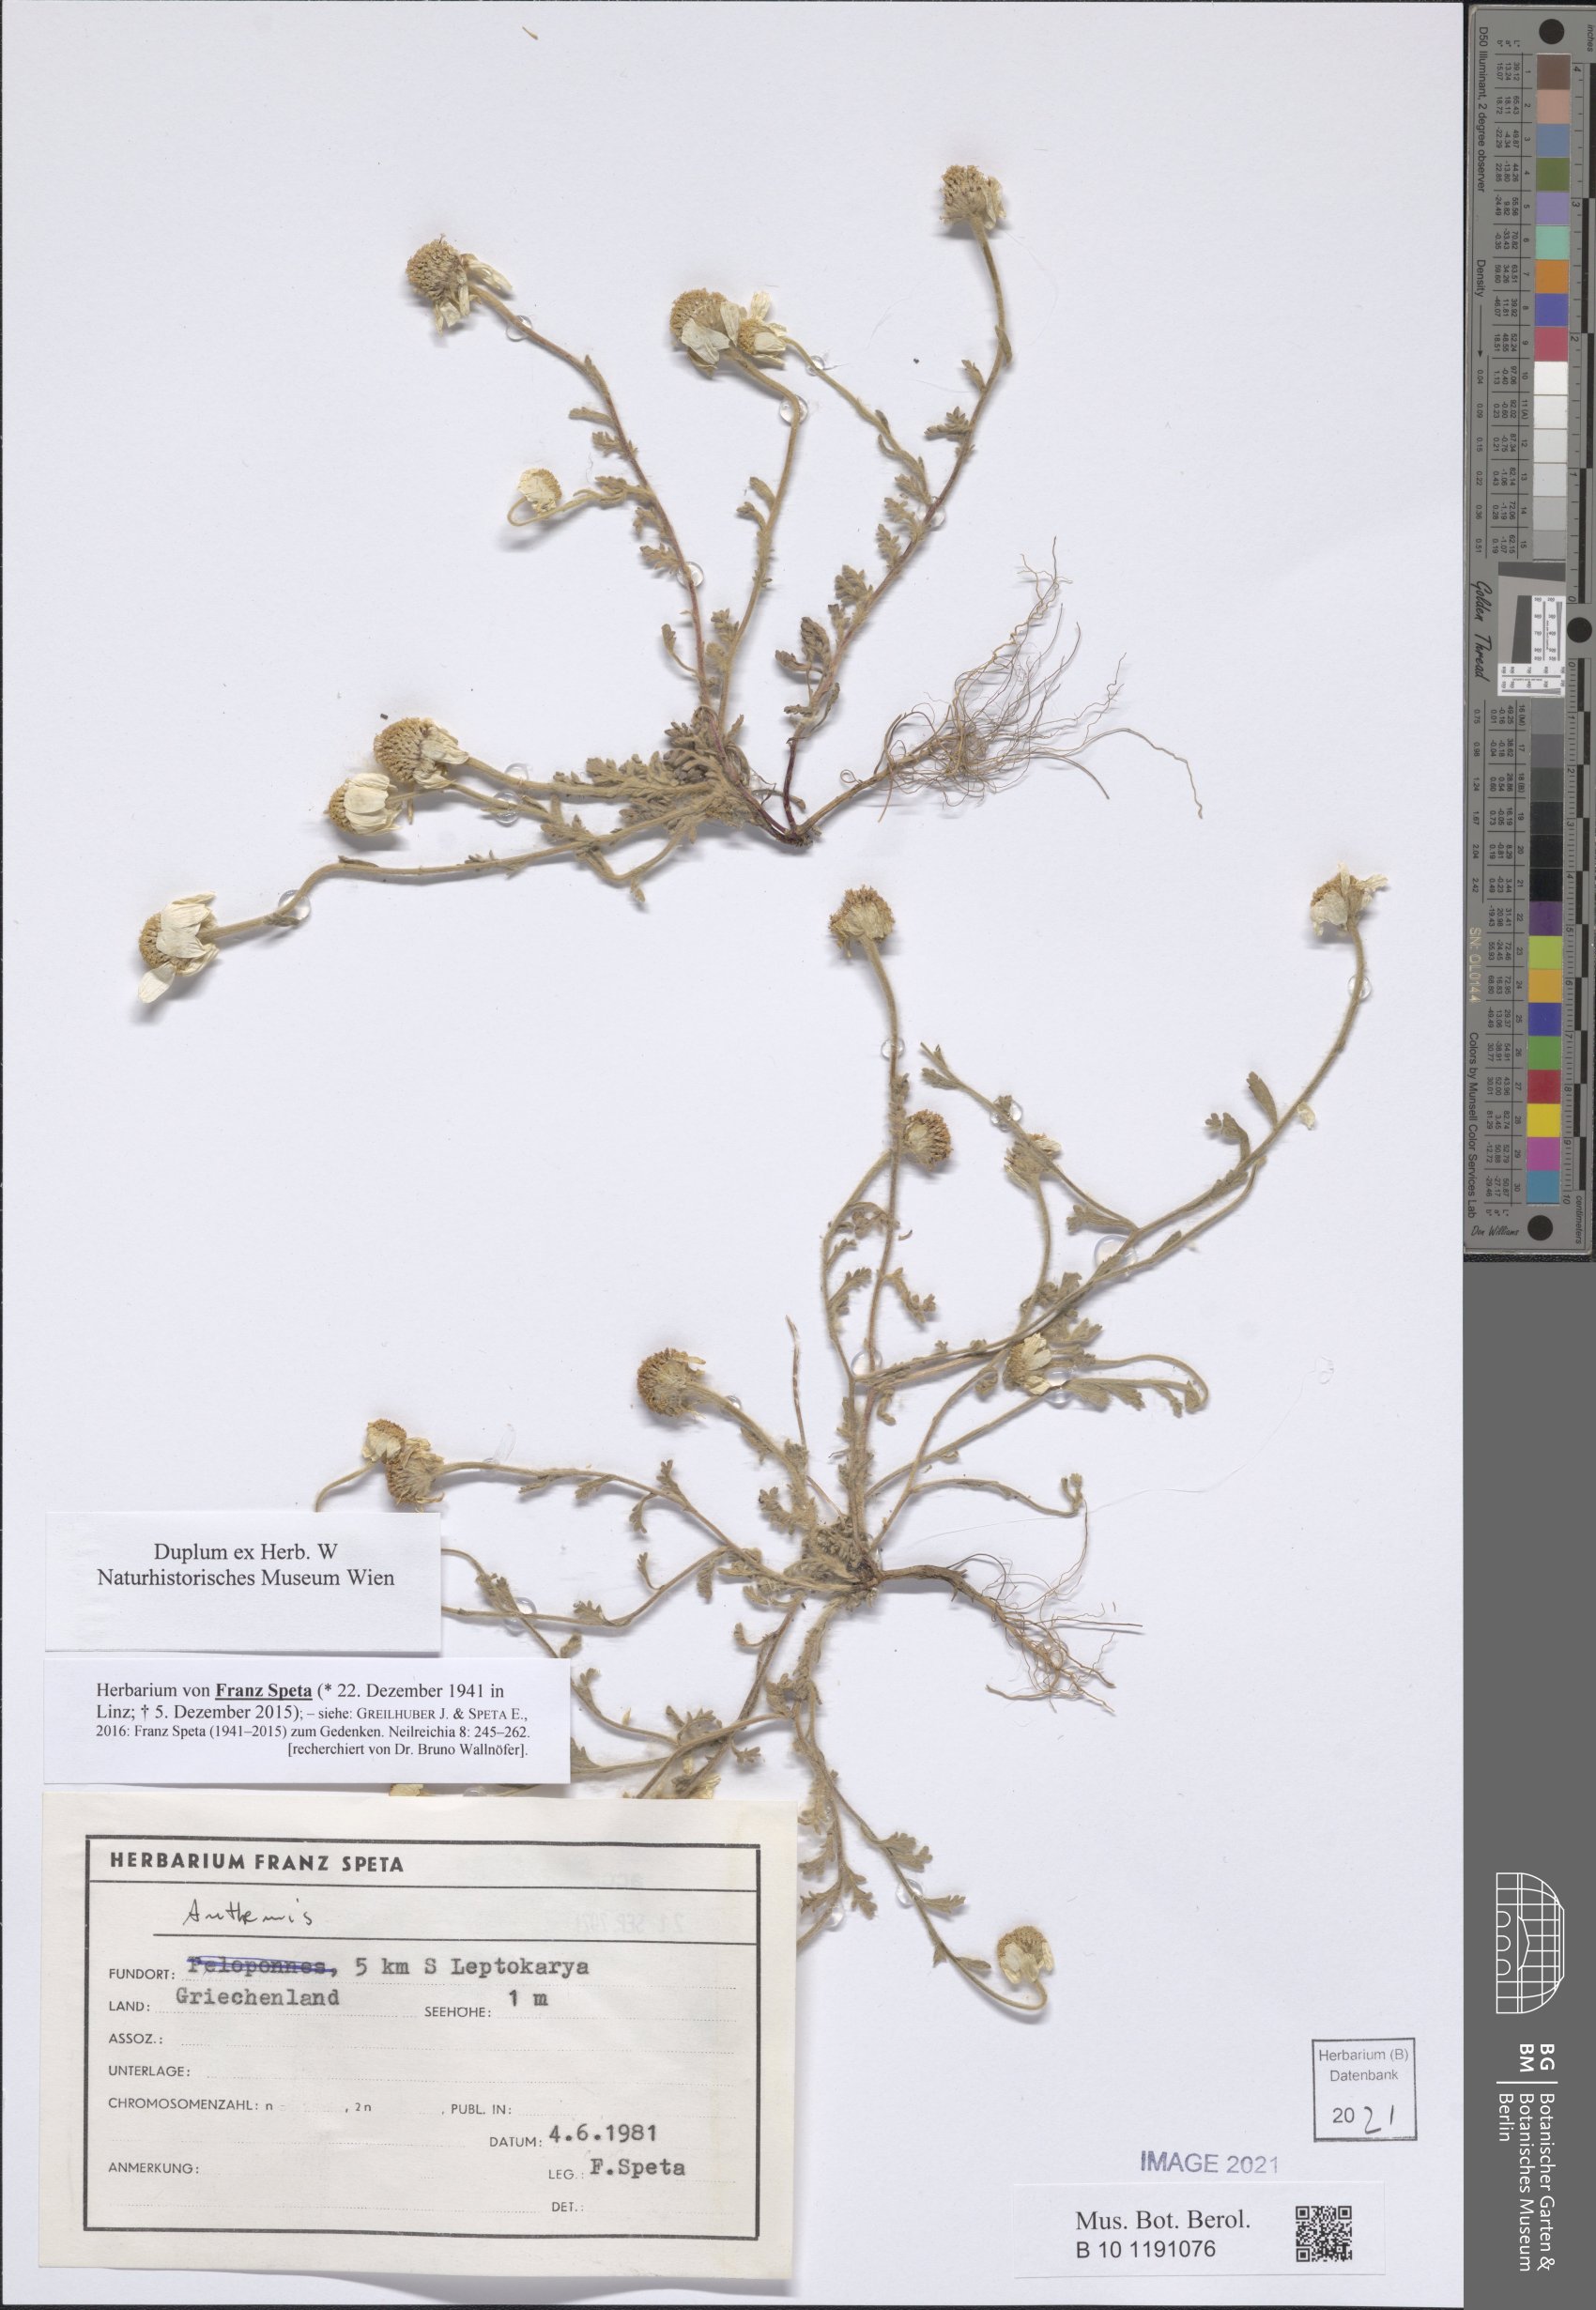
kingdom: Plantae
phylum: Tracheophyta
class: Magnoliopsida
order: Asterales
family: Asteraceae
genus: Anthemis
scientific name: Anthemis
